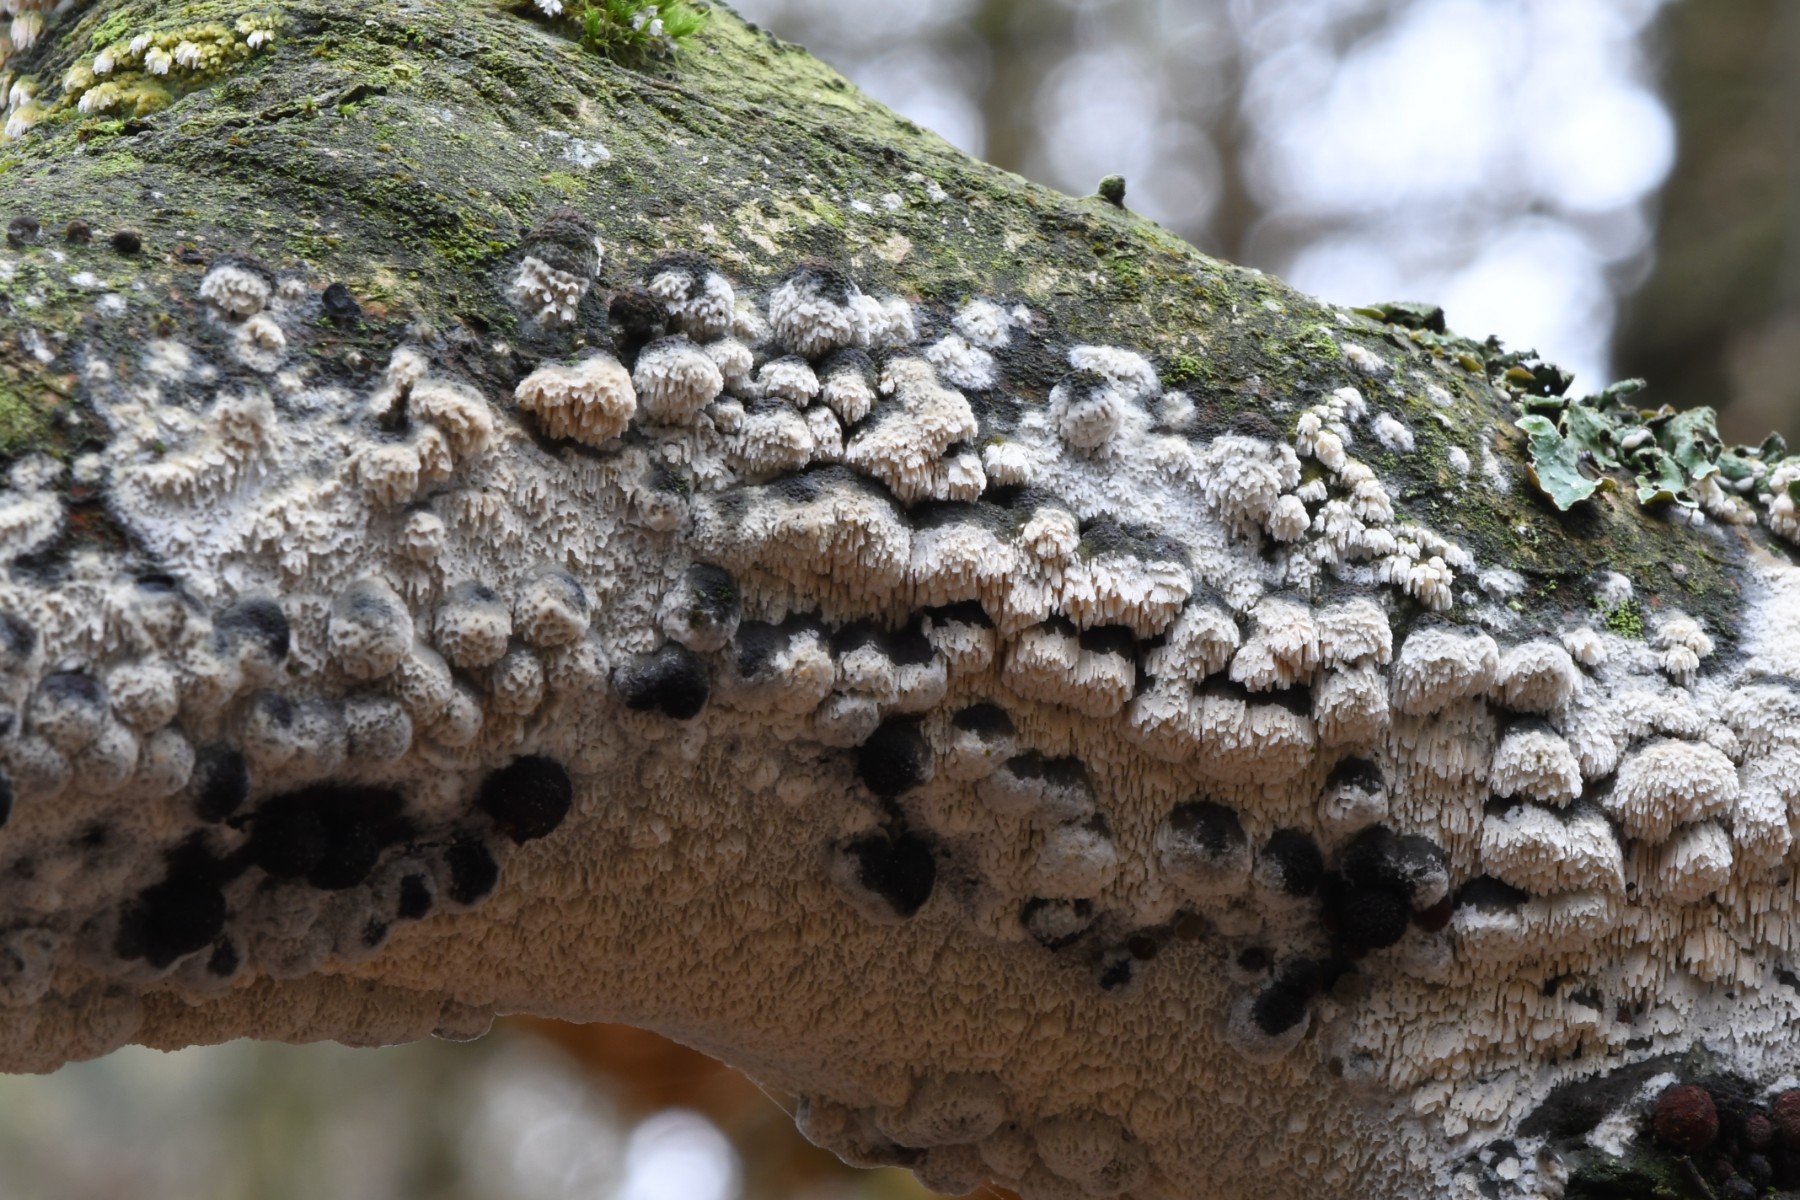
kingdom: Fungi
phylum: Basidiomycota
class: Agaricomycetes
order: Hymenochaetales
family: Schizoporaceae
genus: Schizopora
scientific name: Schizopora paradoxa
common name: hvid tandsvamp
